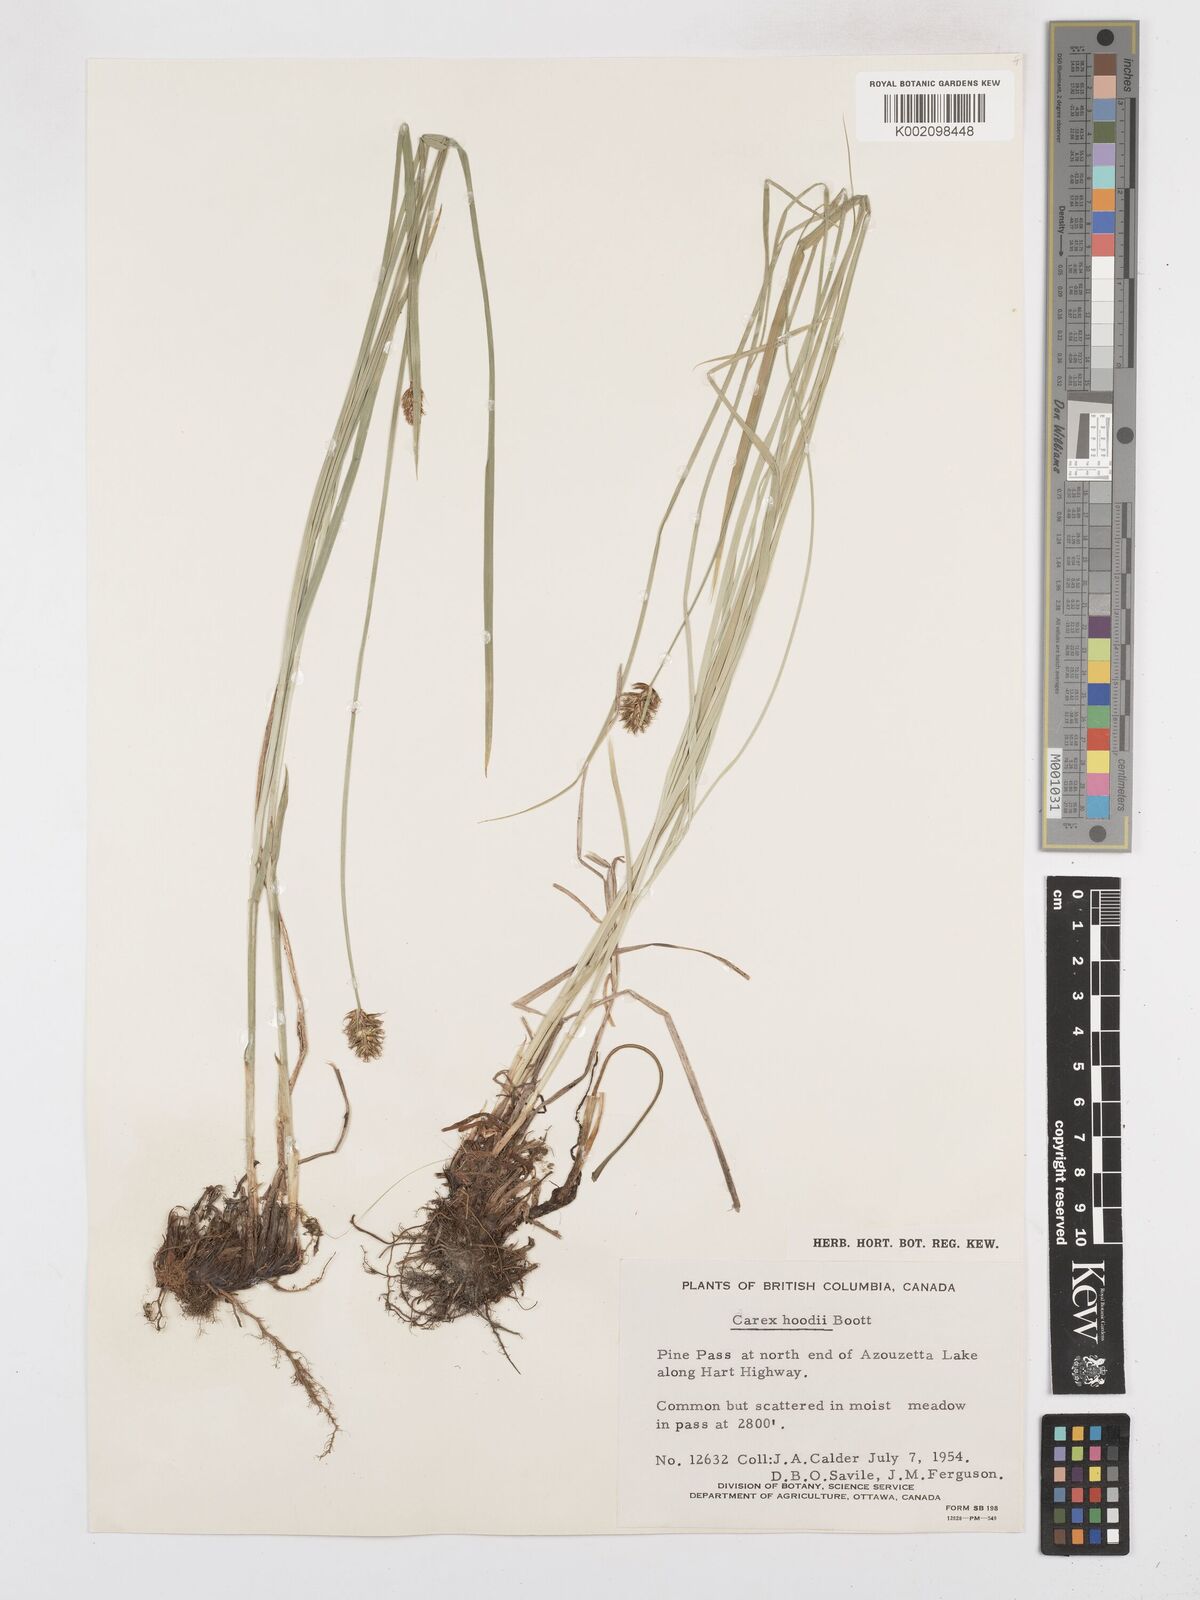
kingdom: Plantae
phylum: Tracheophyta
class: Liliopsida
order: Poales
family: Cyperaceae
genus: Carex
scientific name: Carex hoodii
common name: Hood's sedge
